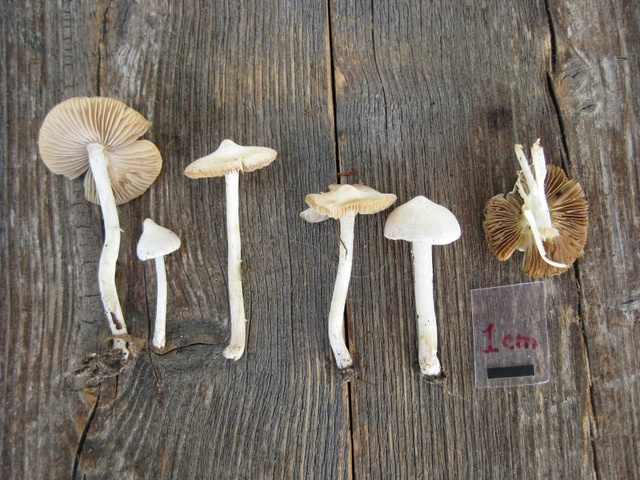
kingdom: Fungi
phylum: Basidiomycota
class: Agaricomycetes
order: Agaricales
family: Inocybaceae
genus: Inocybe
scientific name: Inocybe
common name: almindelig trævlhat
